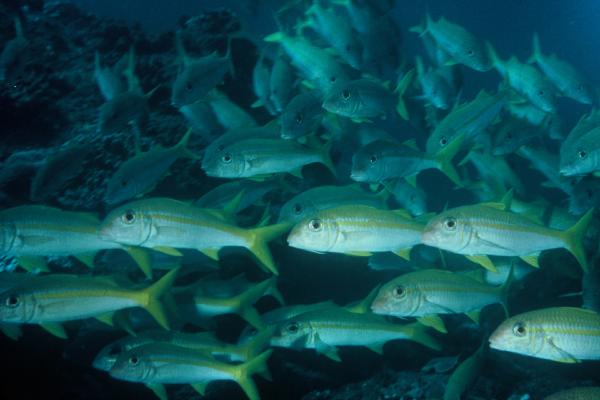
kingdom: Animalia
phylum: Chordata
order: Perciformes
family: Mullidae
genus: Mulloidichthys
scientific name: Mulloidichthys vanicolensis
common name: Yellowfin goatfish
